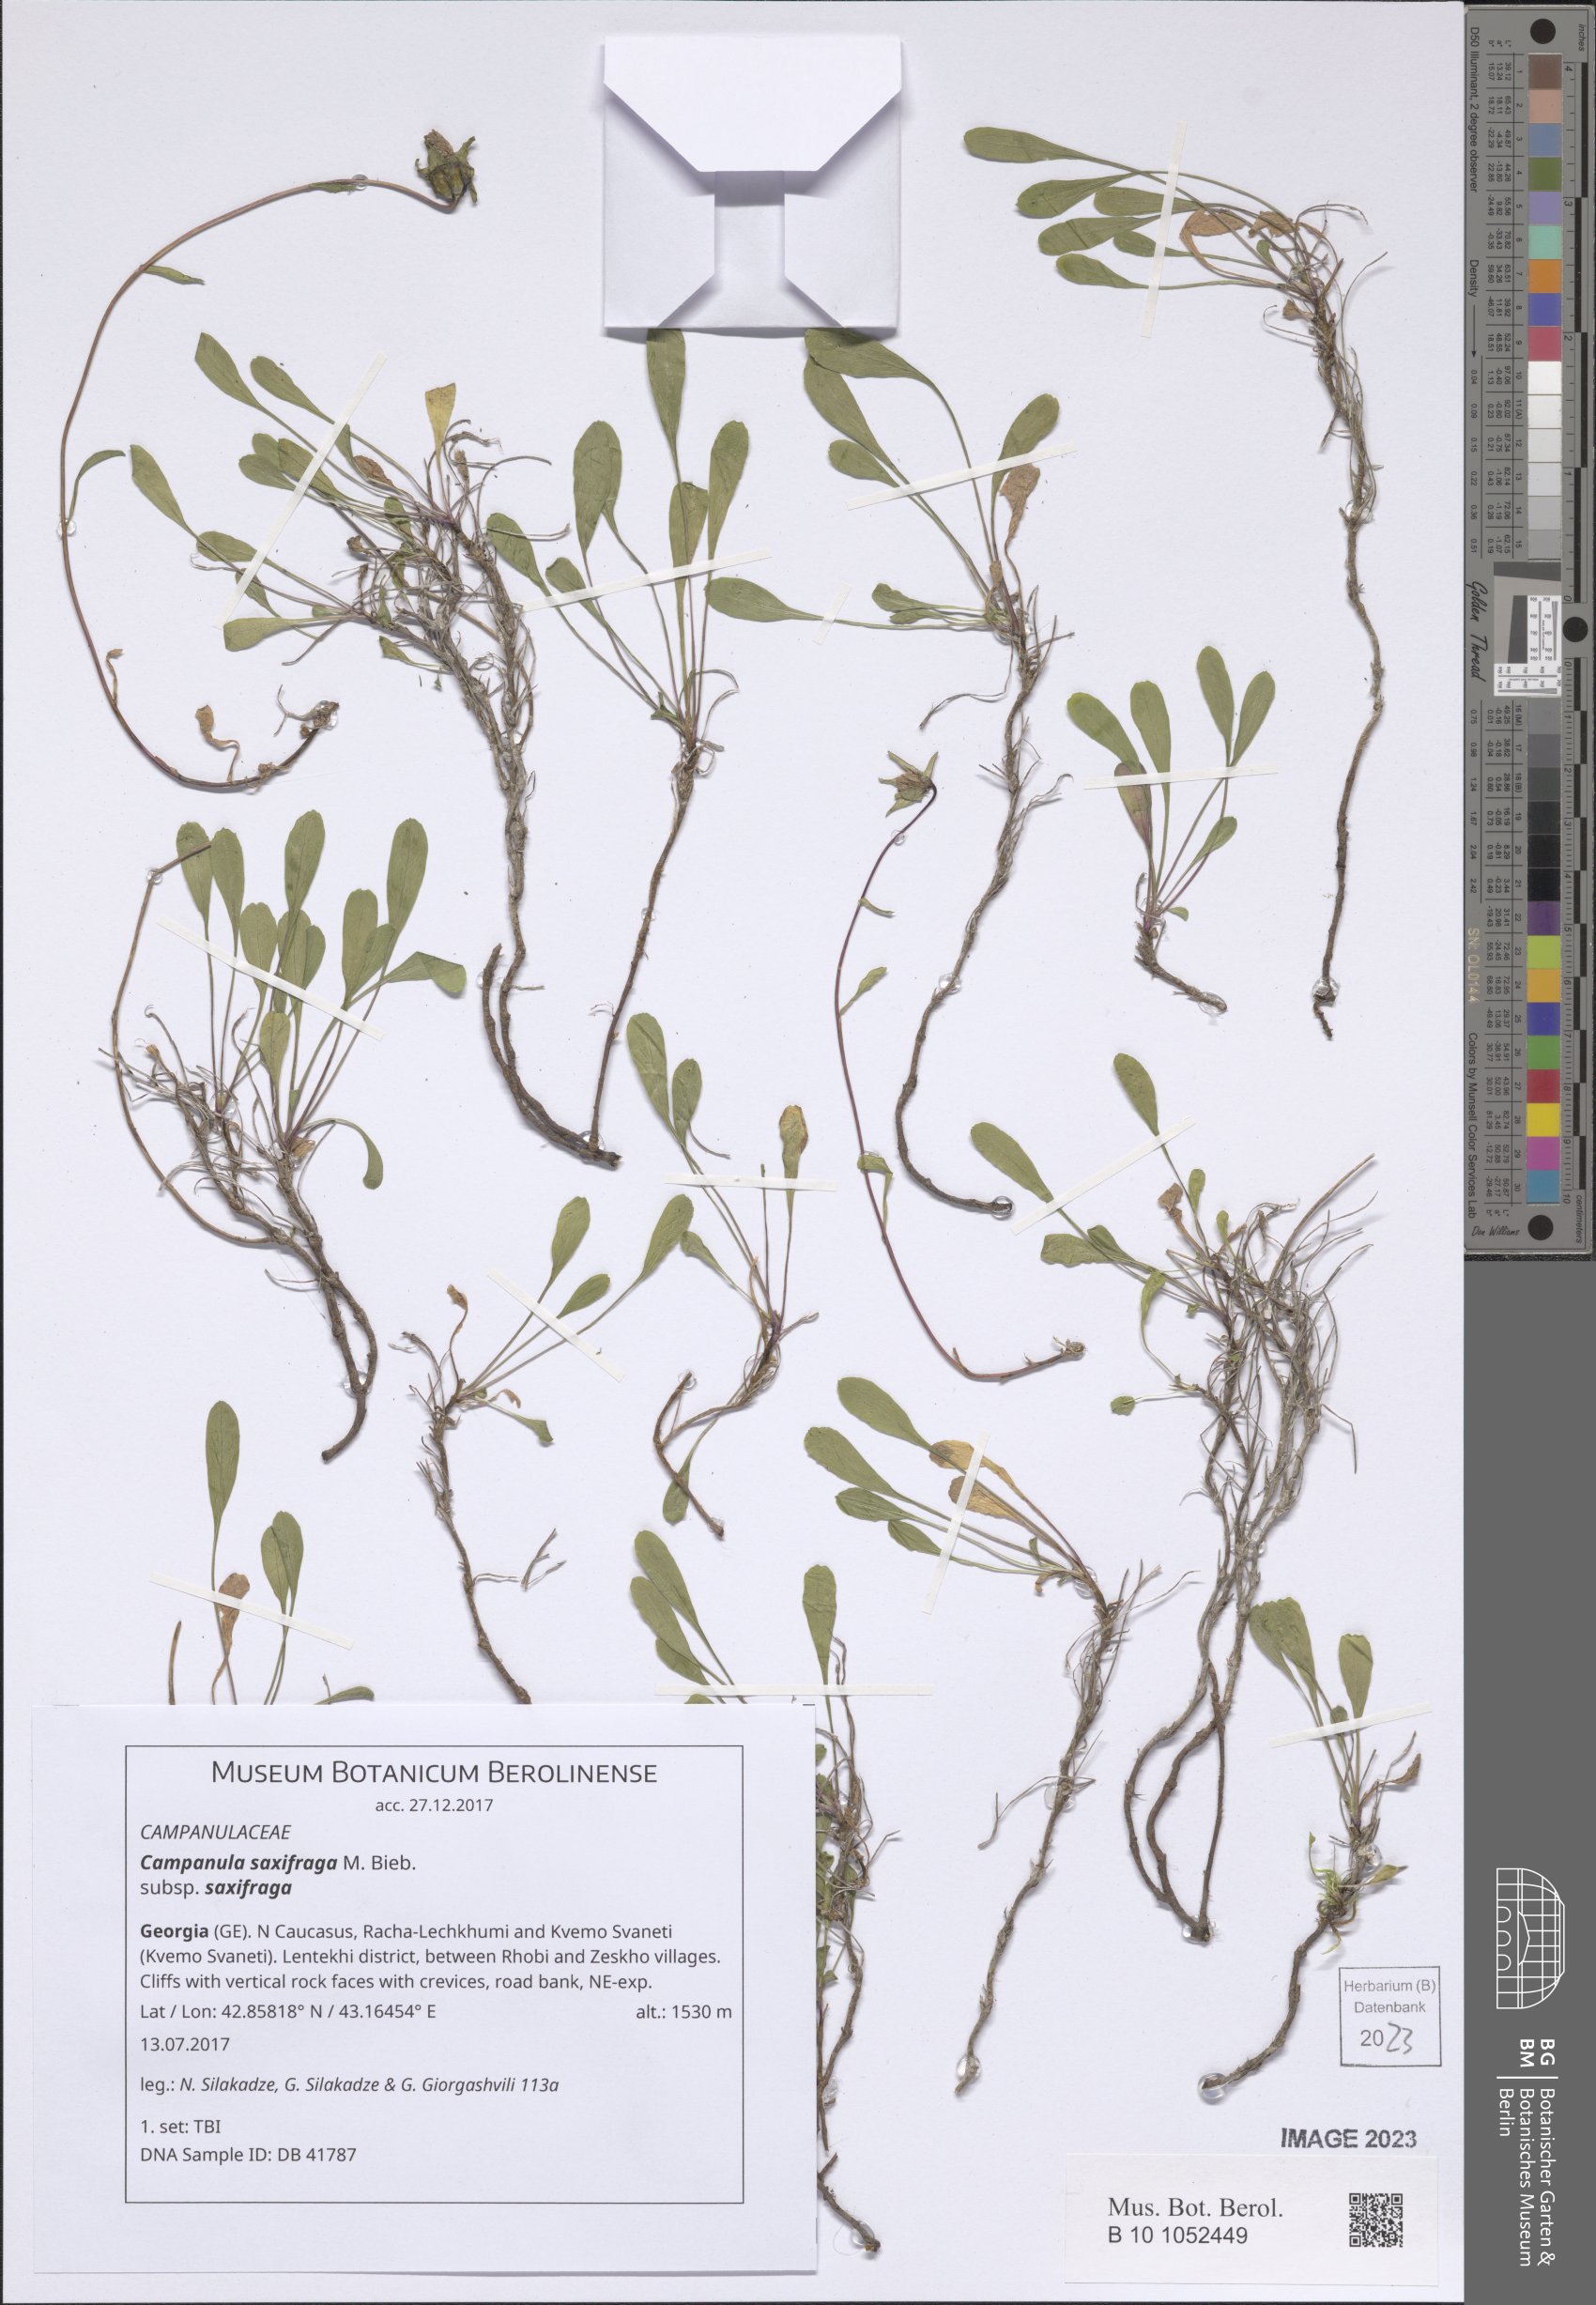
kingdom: Plantae
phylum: Tracheophyta
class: Magnoliopsida
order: Asterales
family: Campanulaceae
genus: Campanula
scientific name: Campanula saxifraga
